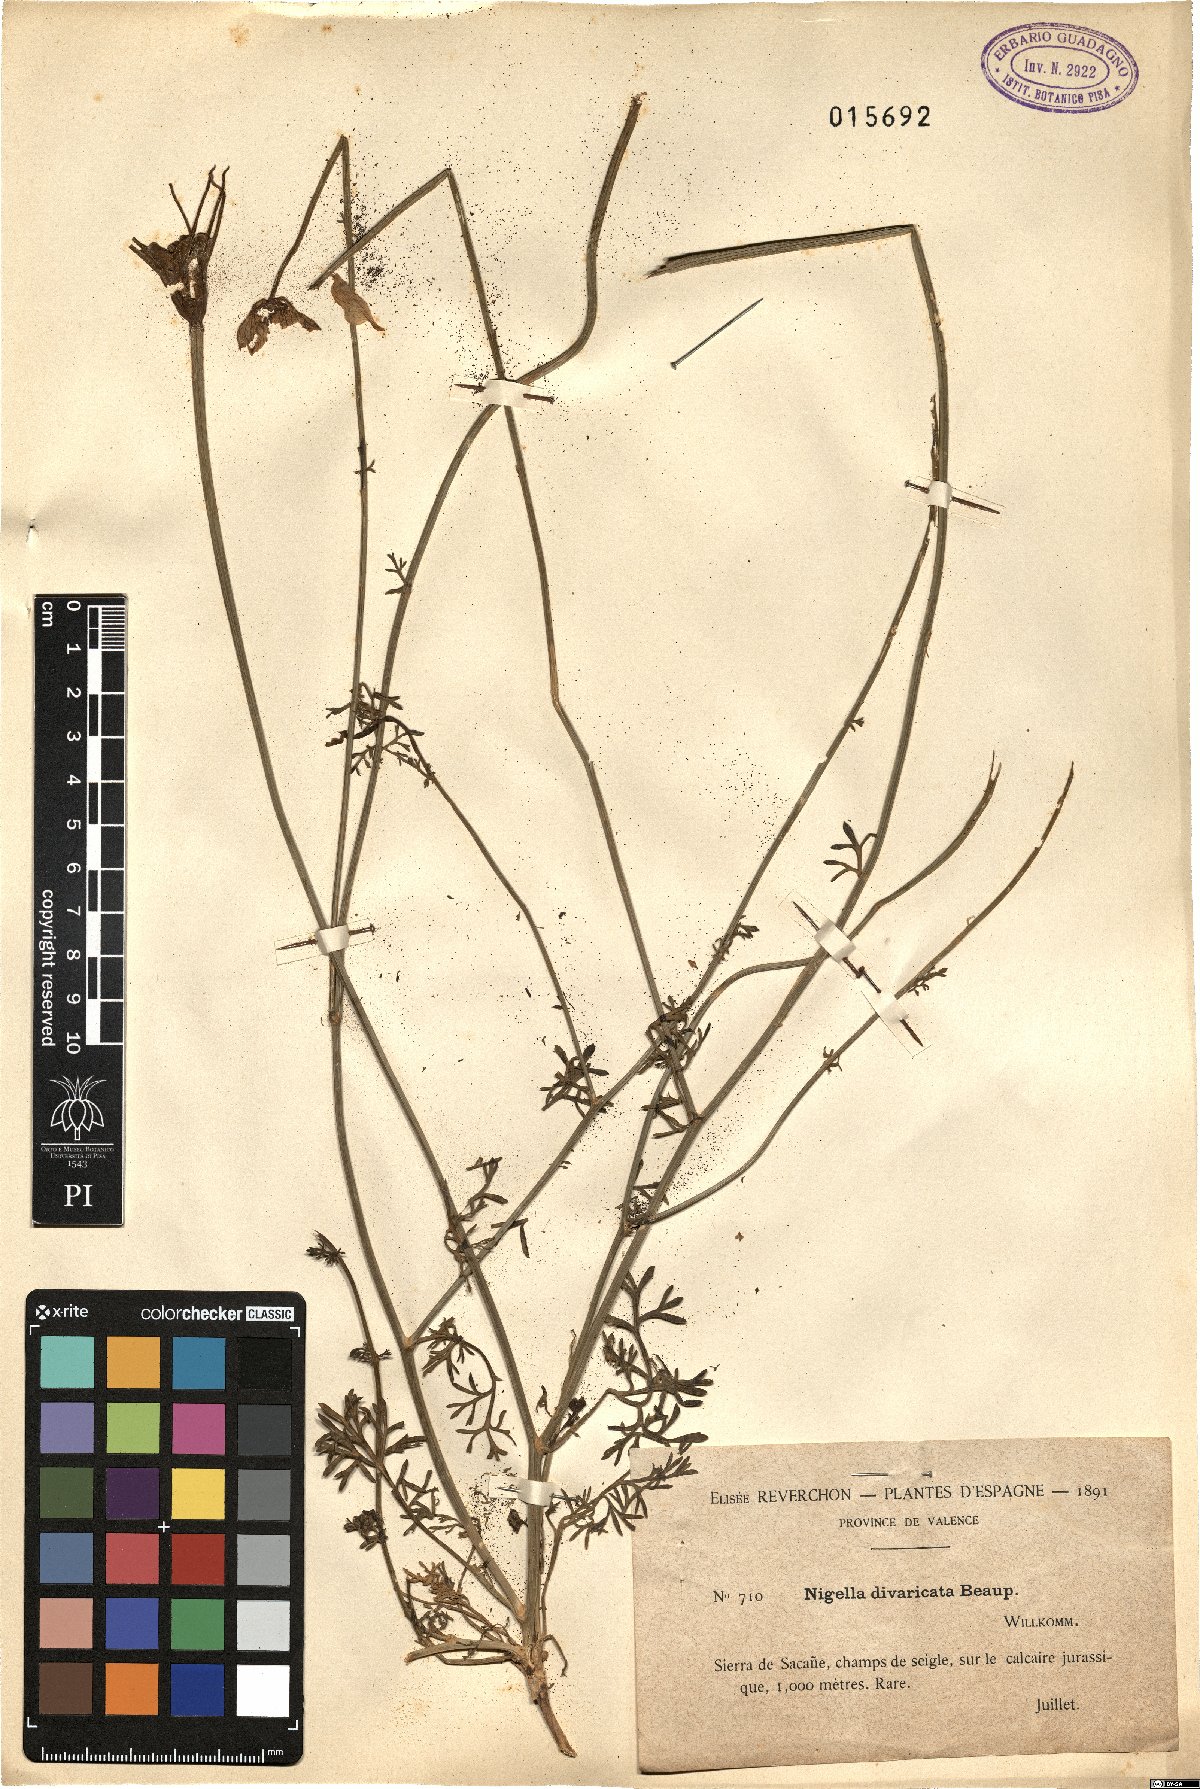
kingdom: Plantae
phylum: Tracheophyta
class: Magnoliopsida
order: Ranunculales
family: Ranunculaceae
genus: Nigella
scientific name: Nigella arvensis
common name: Wild fennel-flower
